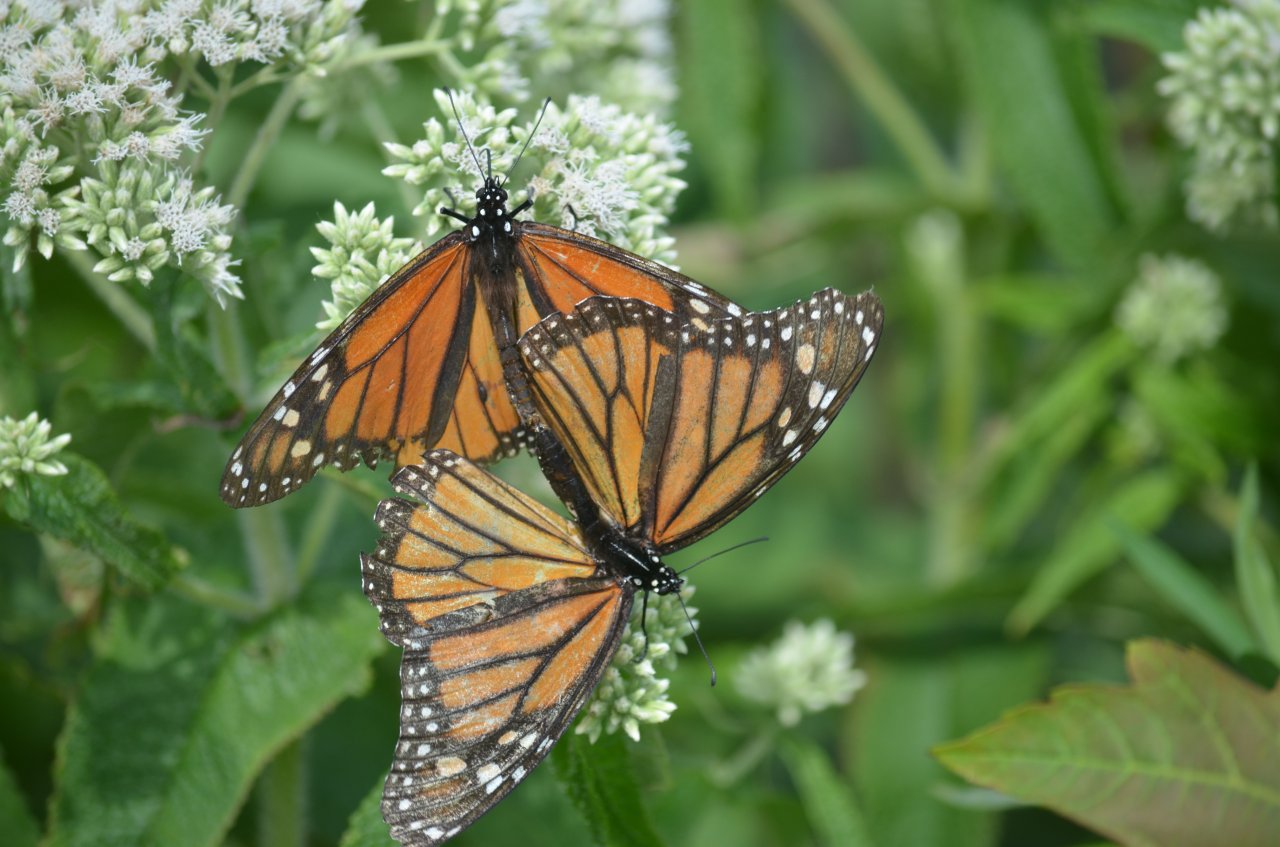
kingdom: Animalia
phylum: Arthropoda
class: Insecta
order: Lepidoptera
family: Nymphalidae
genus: Danaus
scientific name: Danaus plexippus
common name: Monarch
